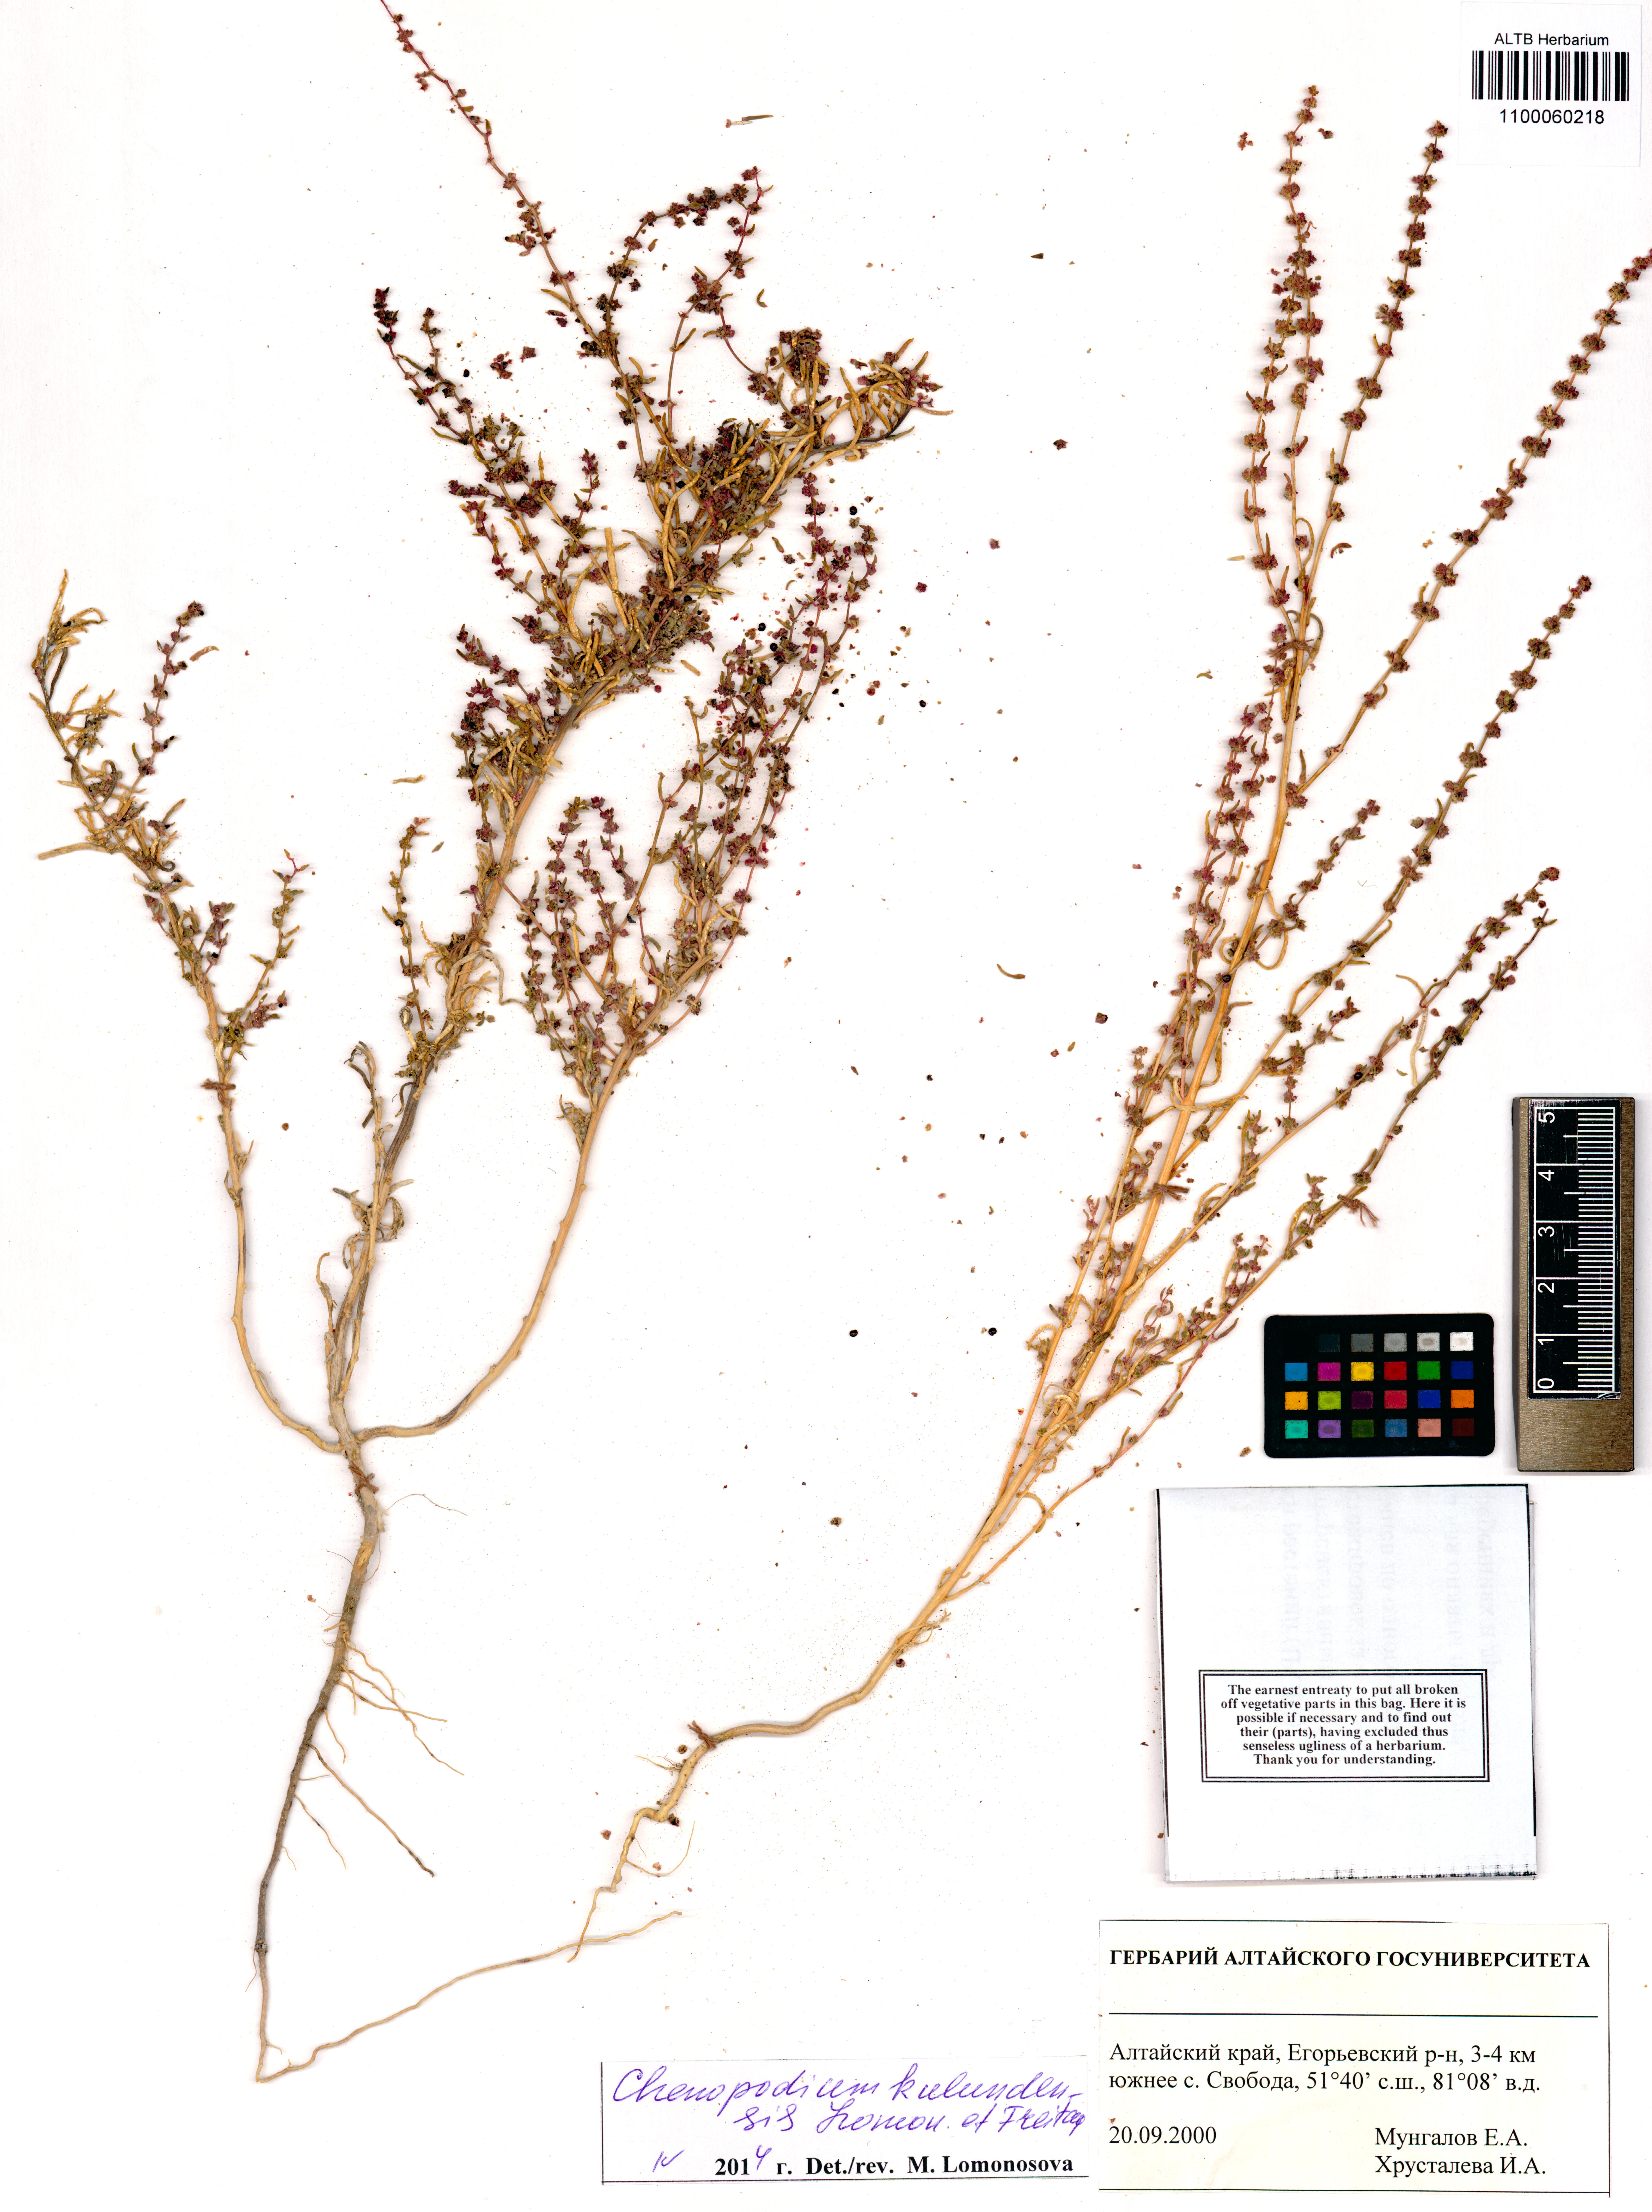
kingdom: Plantae
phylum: Tracheophyta
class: Magnoliopsida
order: Caryophyllales
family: Amaranthaceae
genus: Chenopodium
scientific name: Chenopodium
